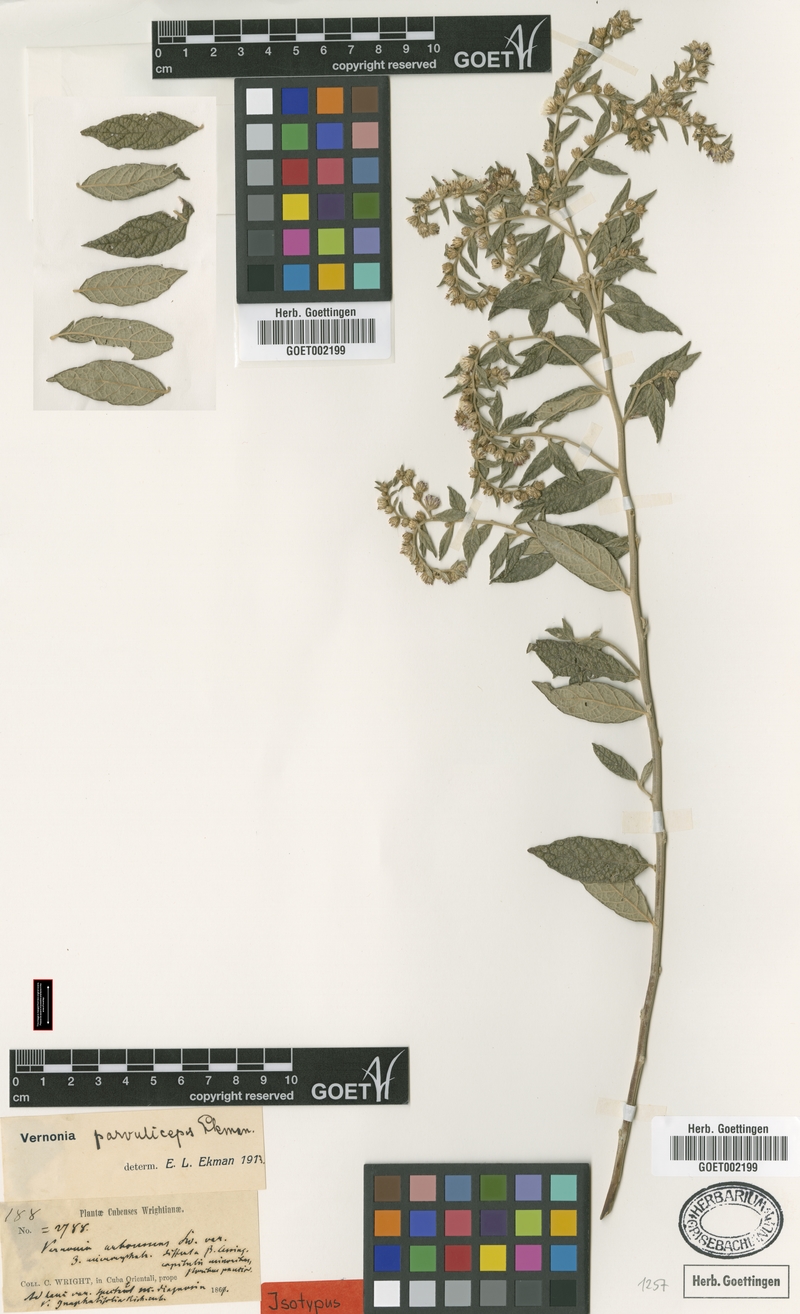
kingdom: Plantae
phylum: Tracheophyta
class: Magnoliopsida
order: Asterales
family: Asteraceae
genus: Lepidaploa
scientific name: Lepidaploa arborescens
